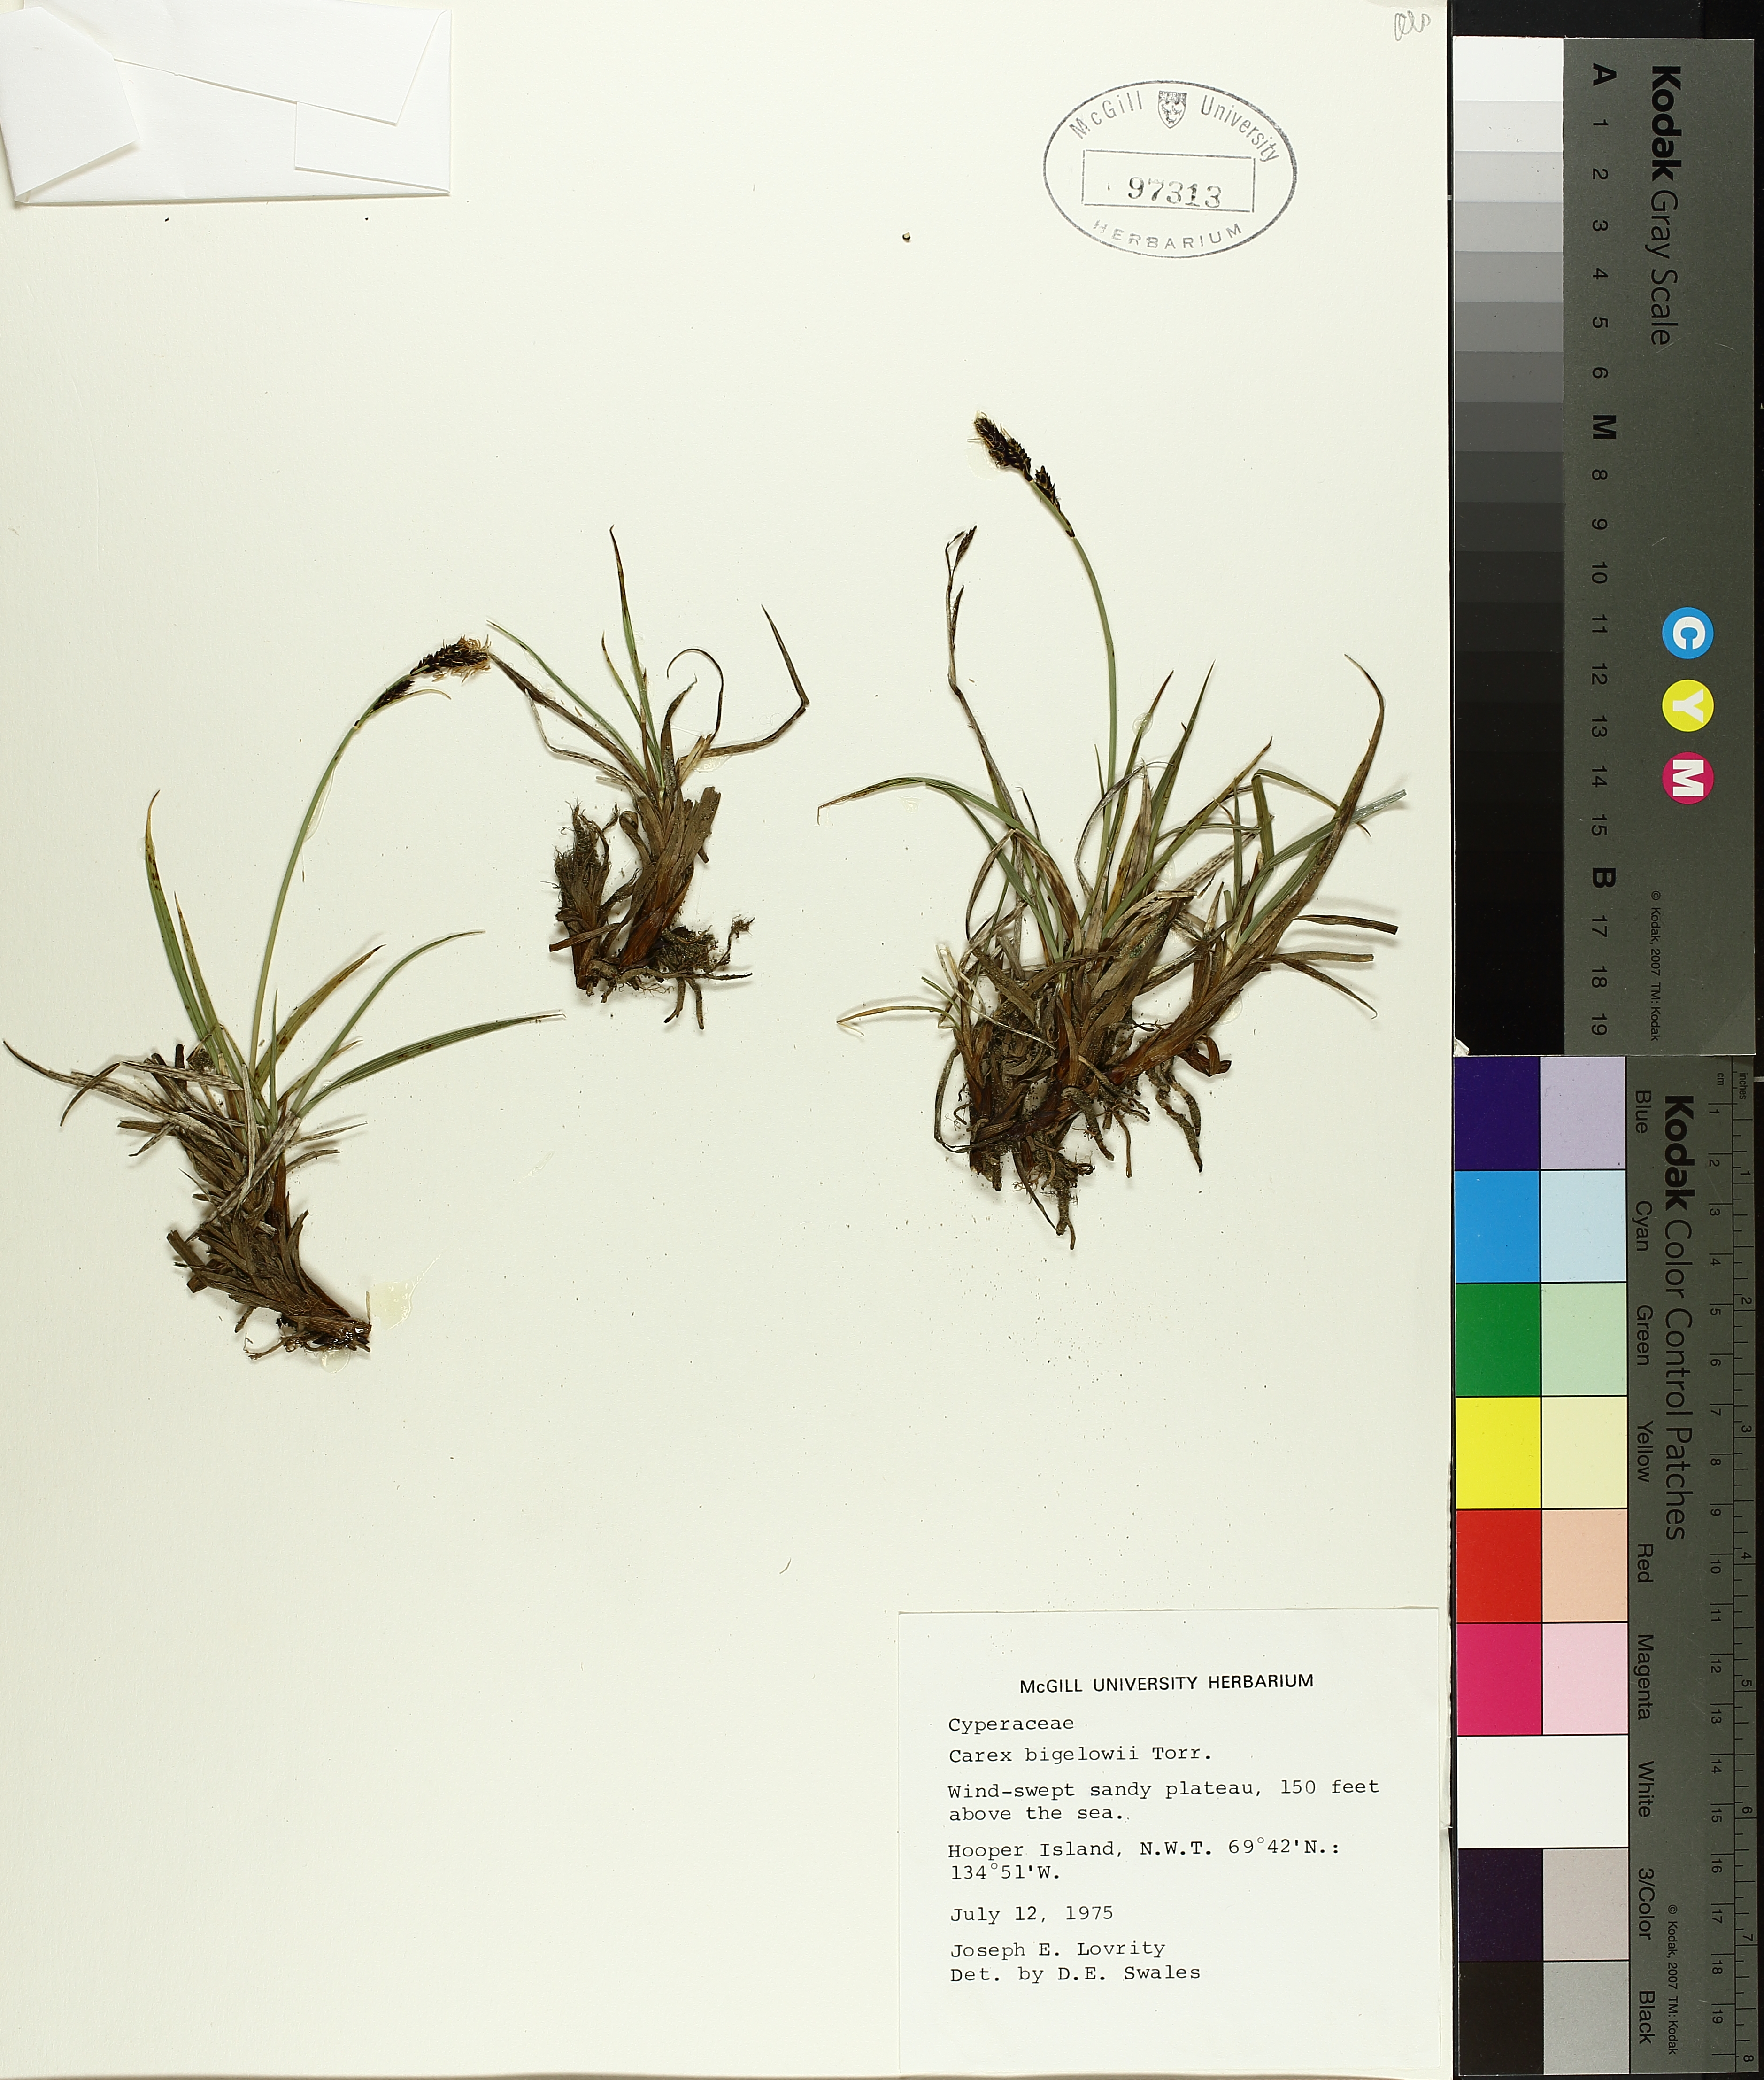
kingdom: Plantae
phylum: Tracheophyta
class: Liliopsida
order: Poales
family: Cyperaceae
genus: Carex
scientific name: Carex bigelowii
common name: Stiff sedge
